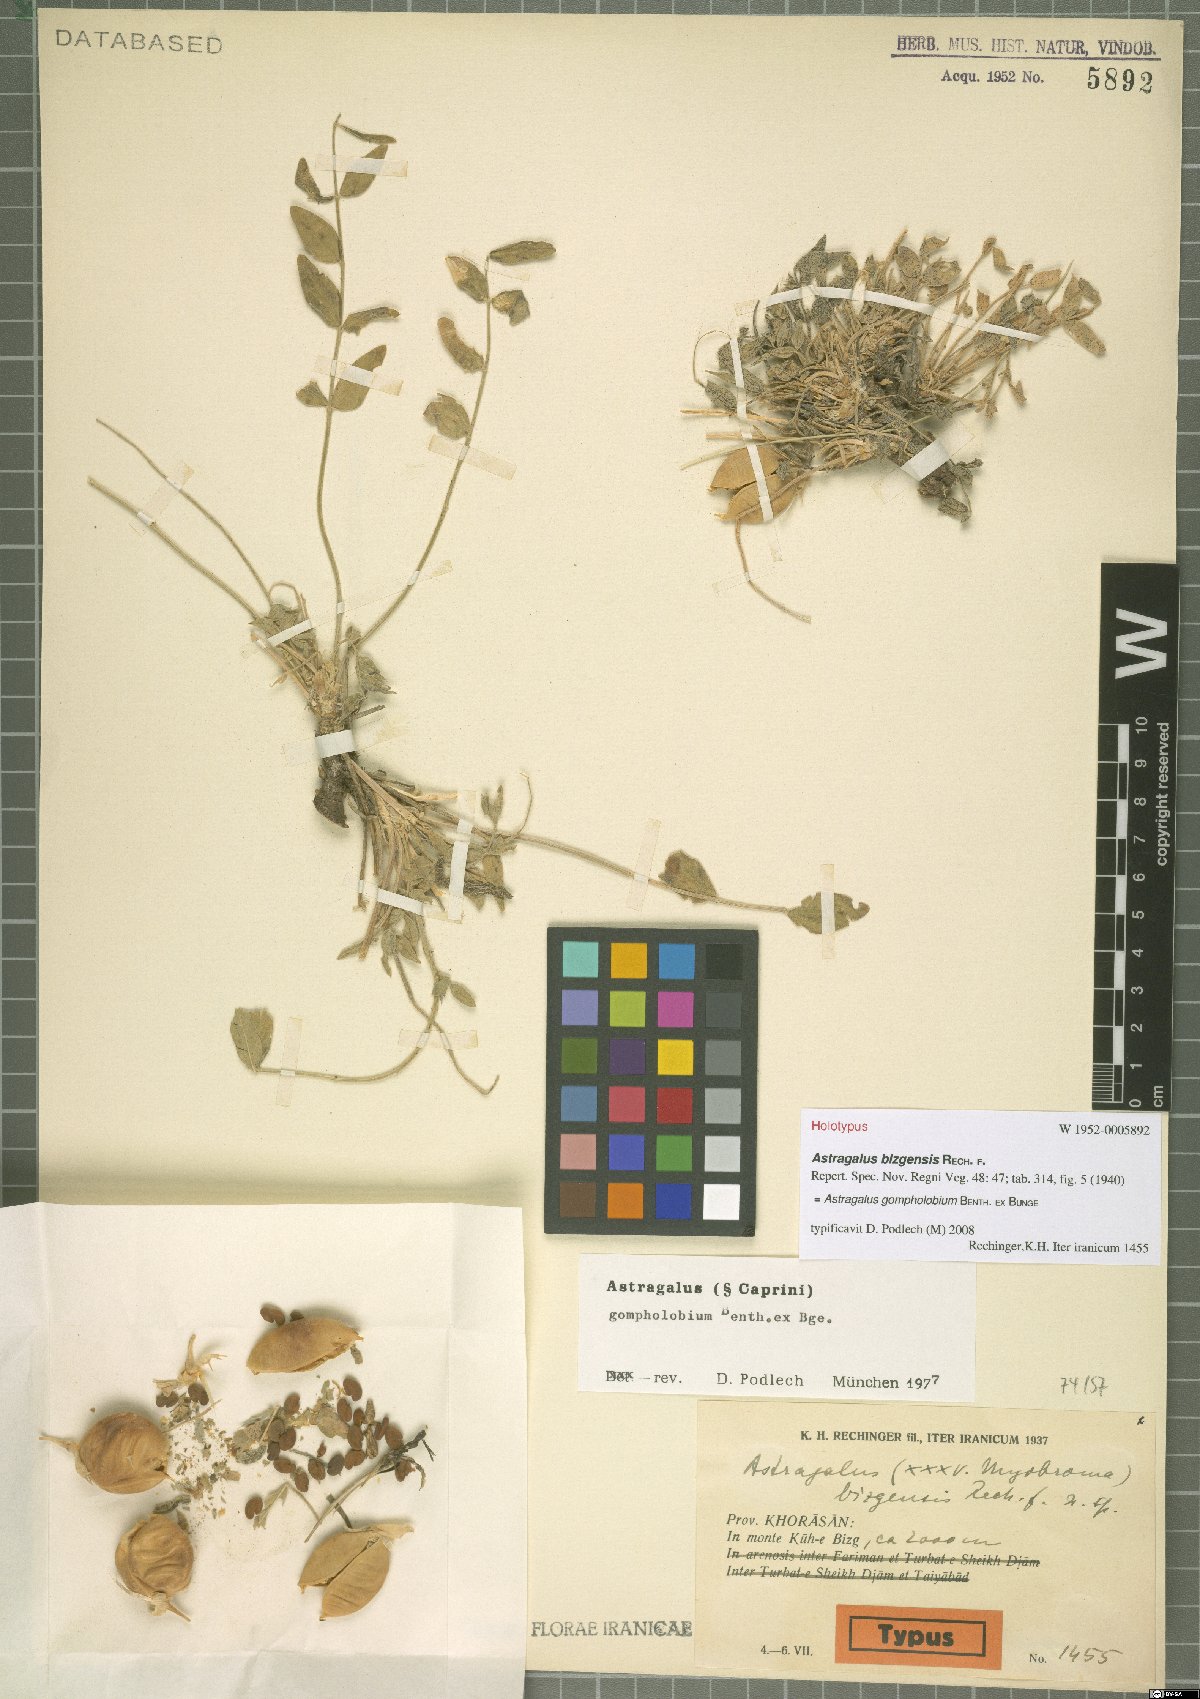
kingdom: Plantae
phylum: Tracheophyta
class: Magnoliopsida
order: Fabales
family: Fabaceae
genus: Astragalus
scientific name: Astragalus gompholobium
